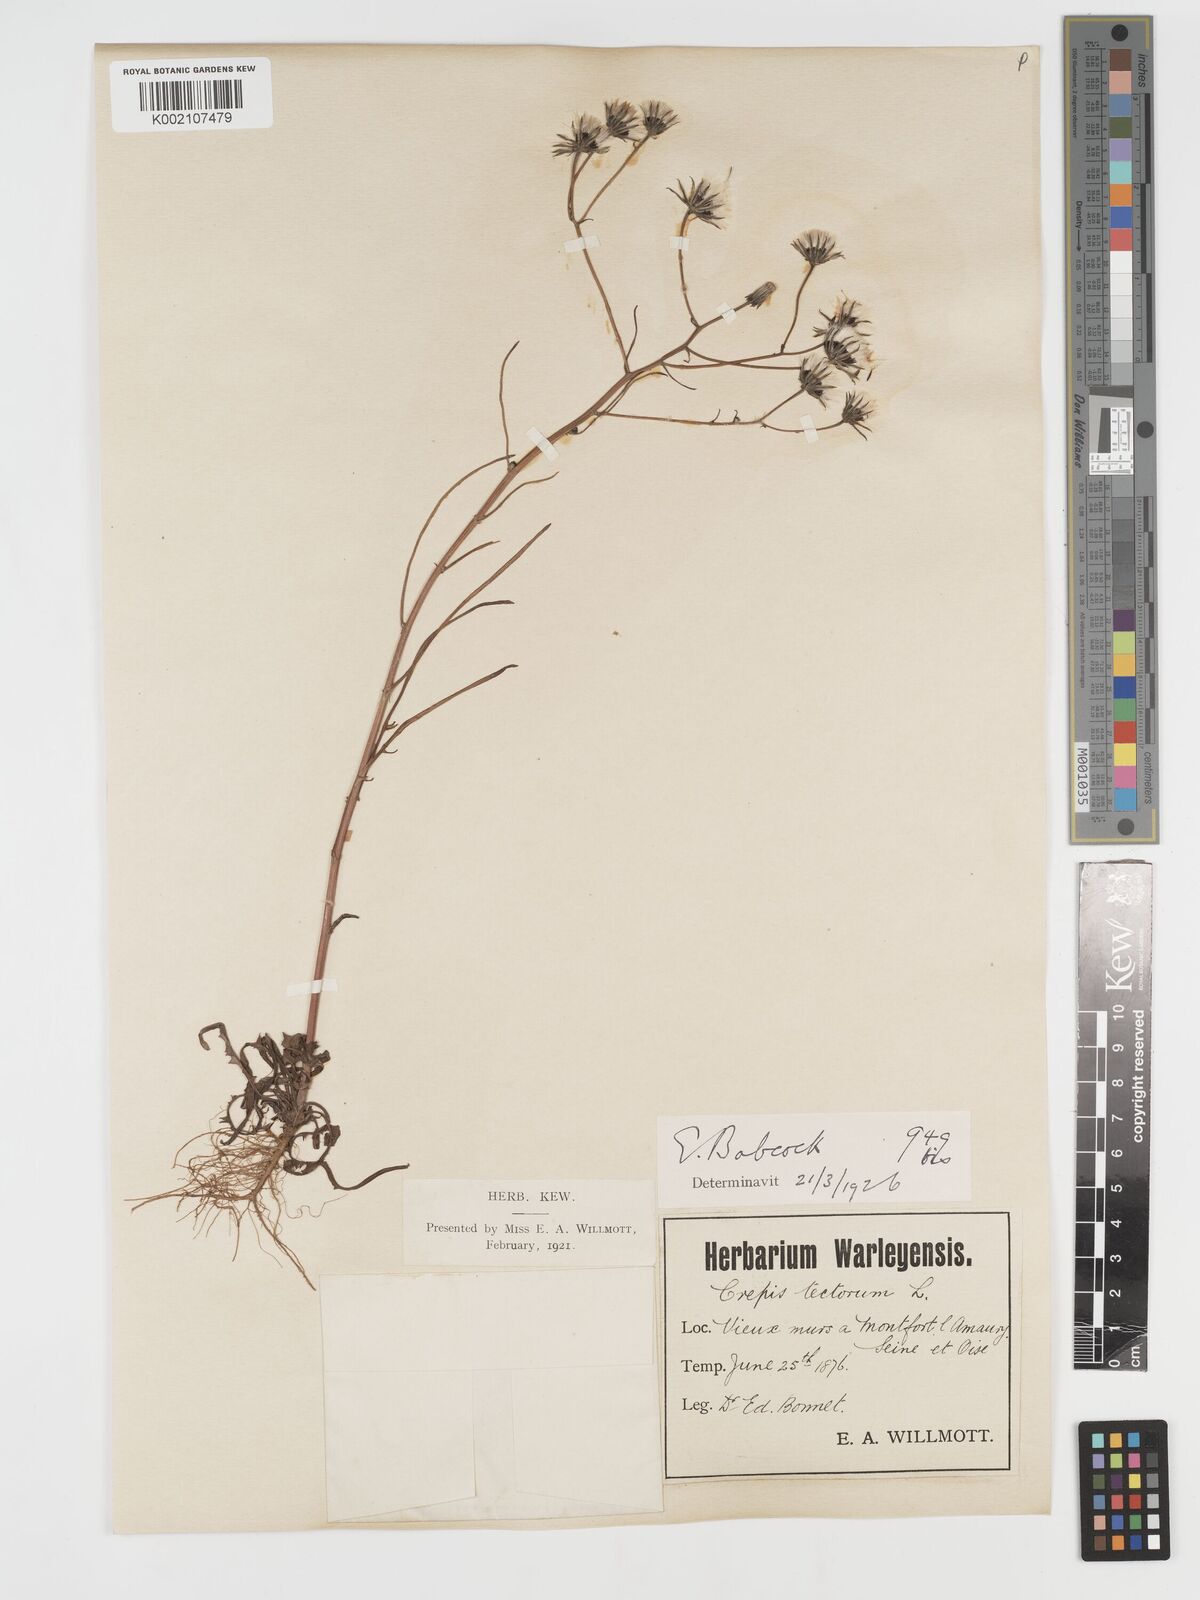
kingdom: Plantae
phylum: Tracheophyta
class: Magnoliopsida
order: Asterales
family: Asteraceae
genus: Crepis
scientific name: Crepis tectorum
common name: Narrow-leaved hawk's-beard
